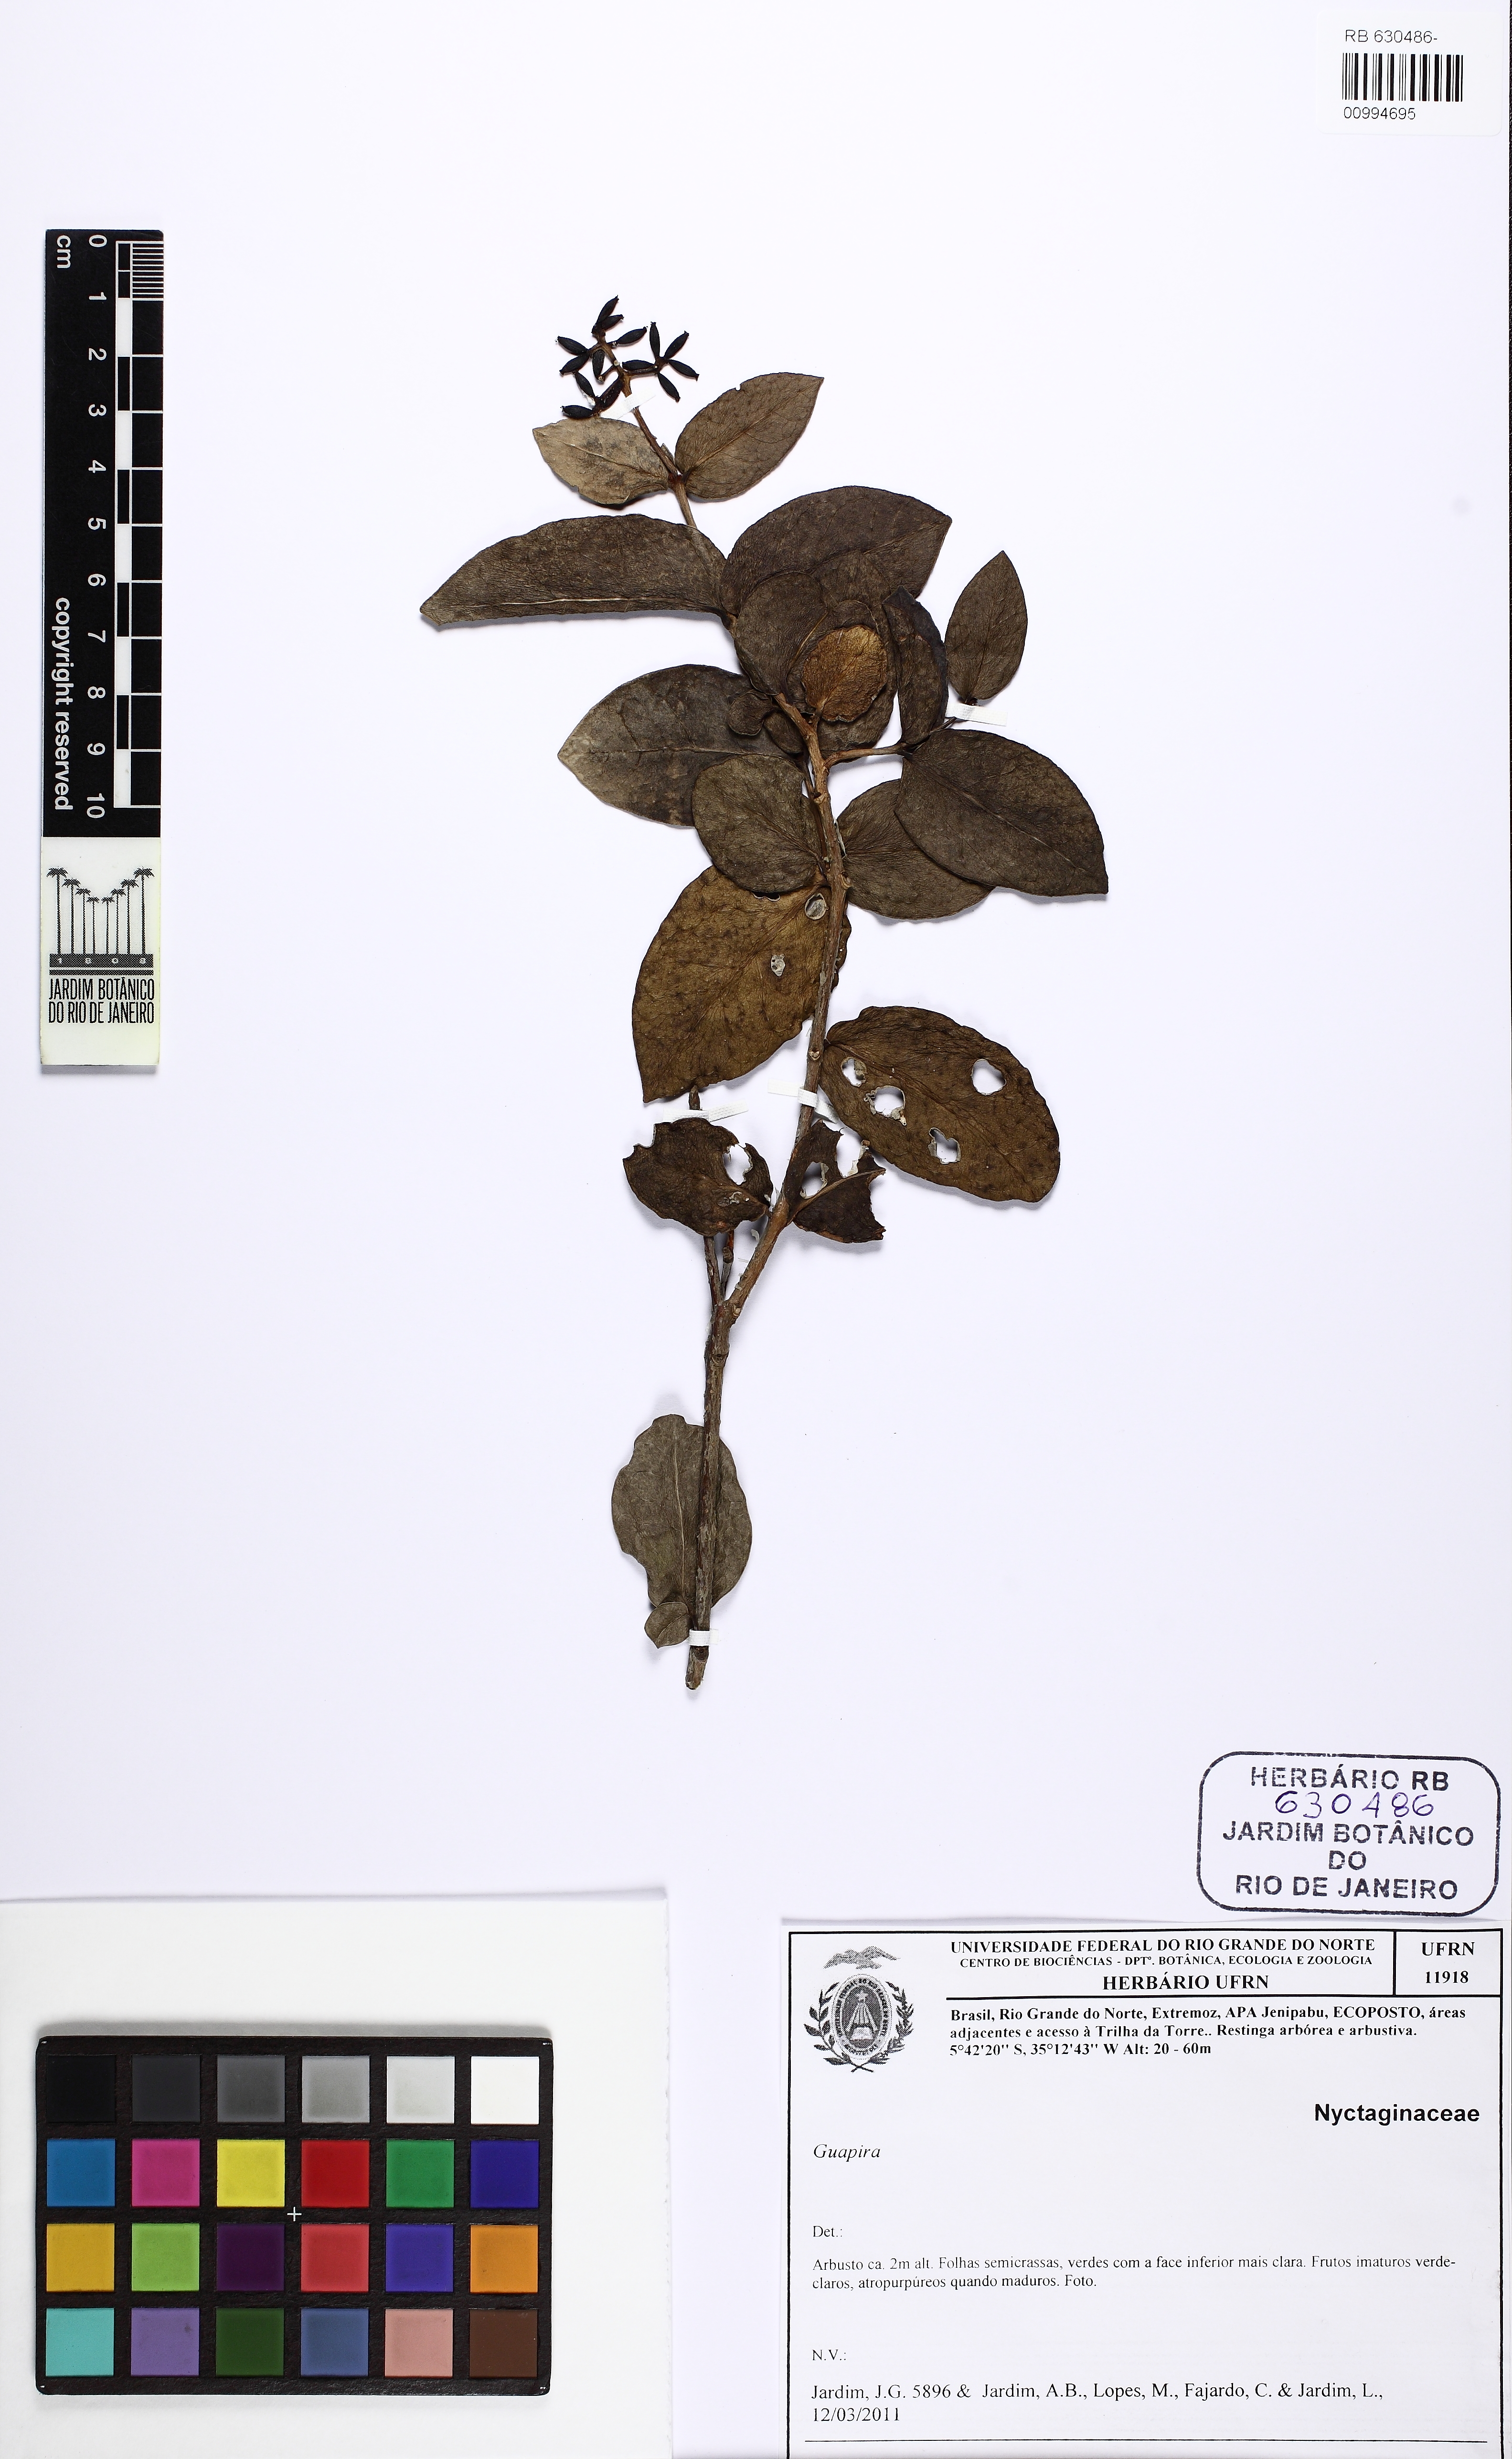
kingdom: Plantae
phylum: Tracheophyta
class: Magnoliopsida
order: Caryophyllales
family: Nyctaginaceae
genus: Guapira
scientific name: Guapira pernambucensis
